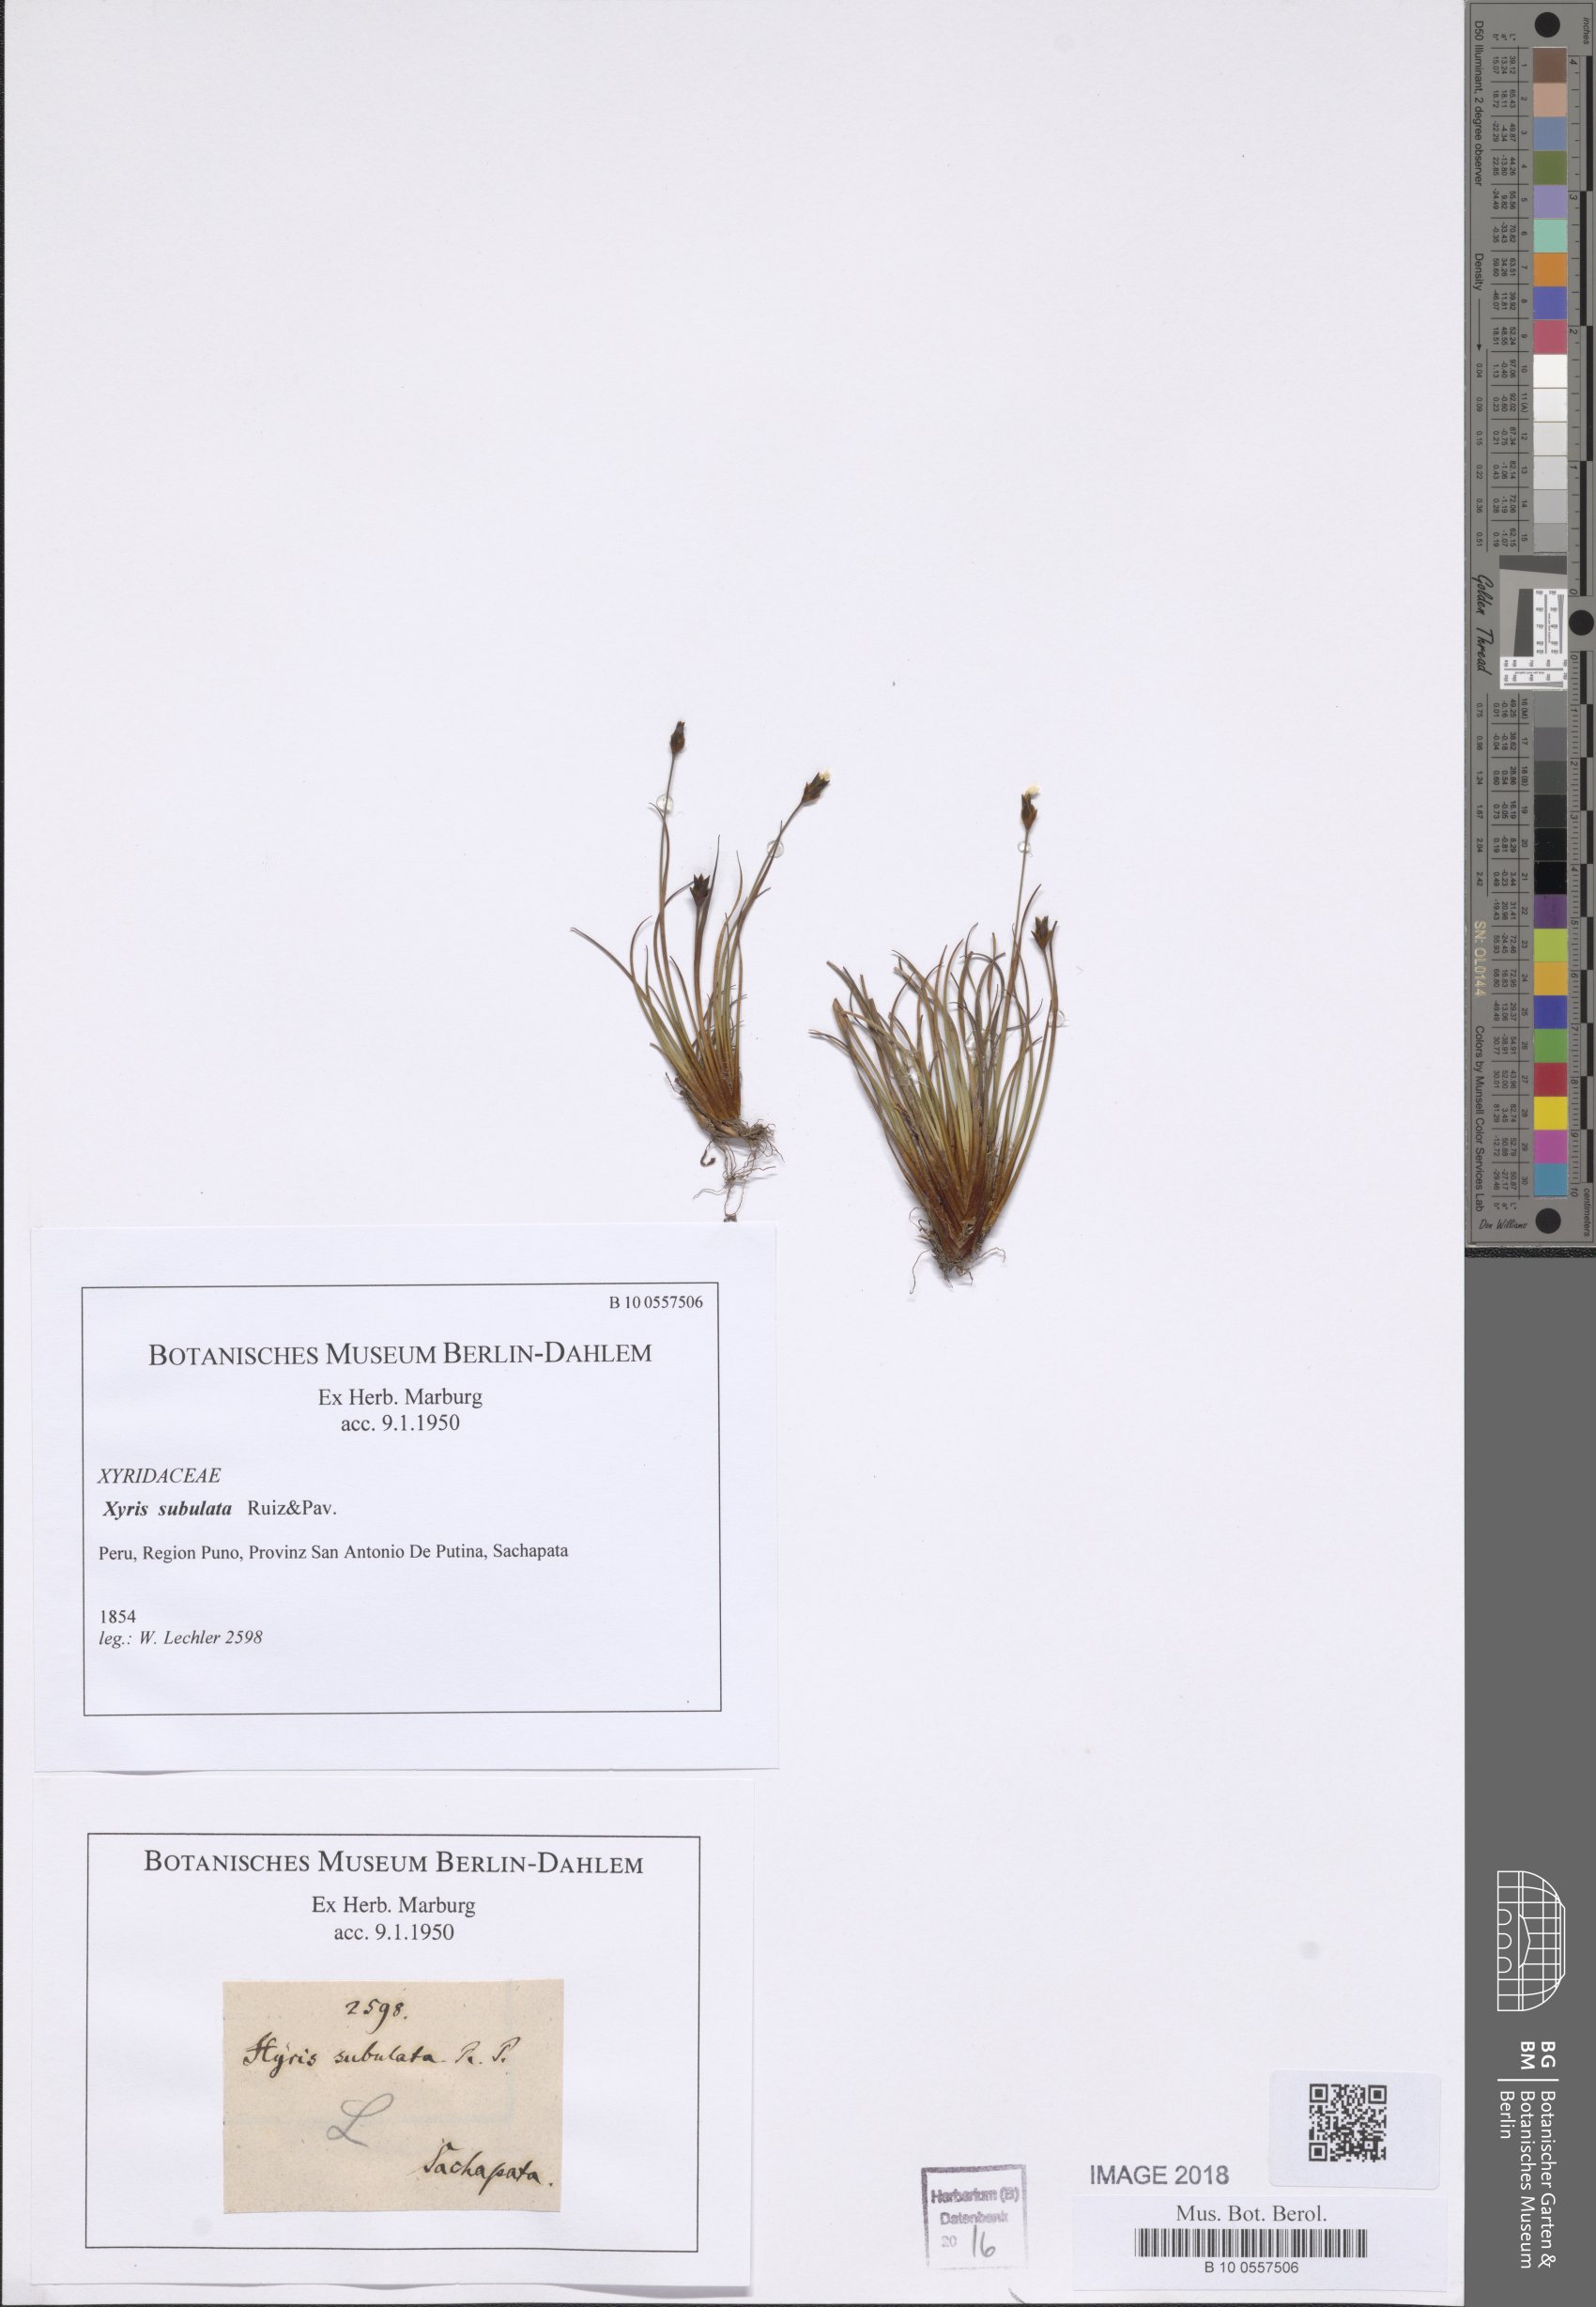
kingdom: Plantae
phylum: Tracheophyta
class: Liliopsida
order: Poales
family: Xyridaceae
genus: Xyris
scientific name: Xyris subulata
